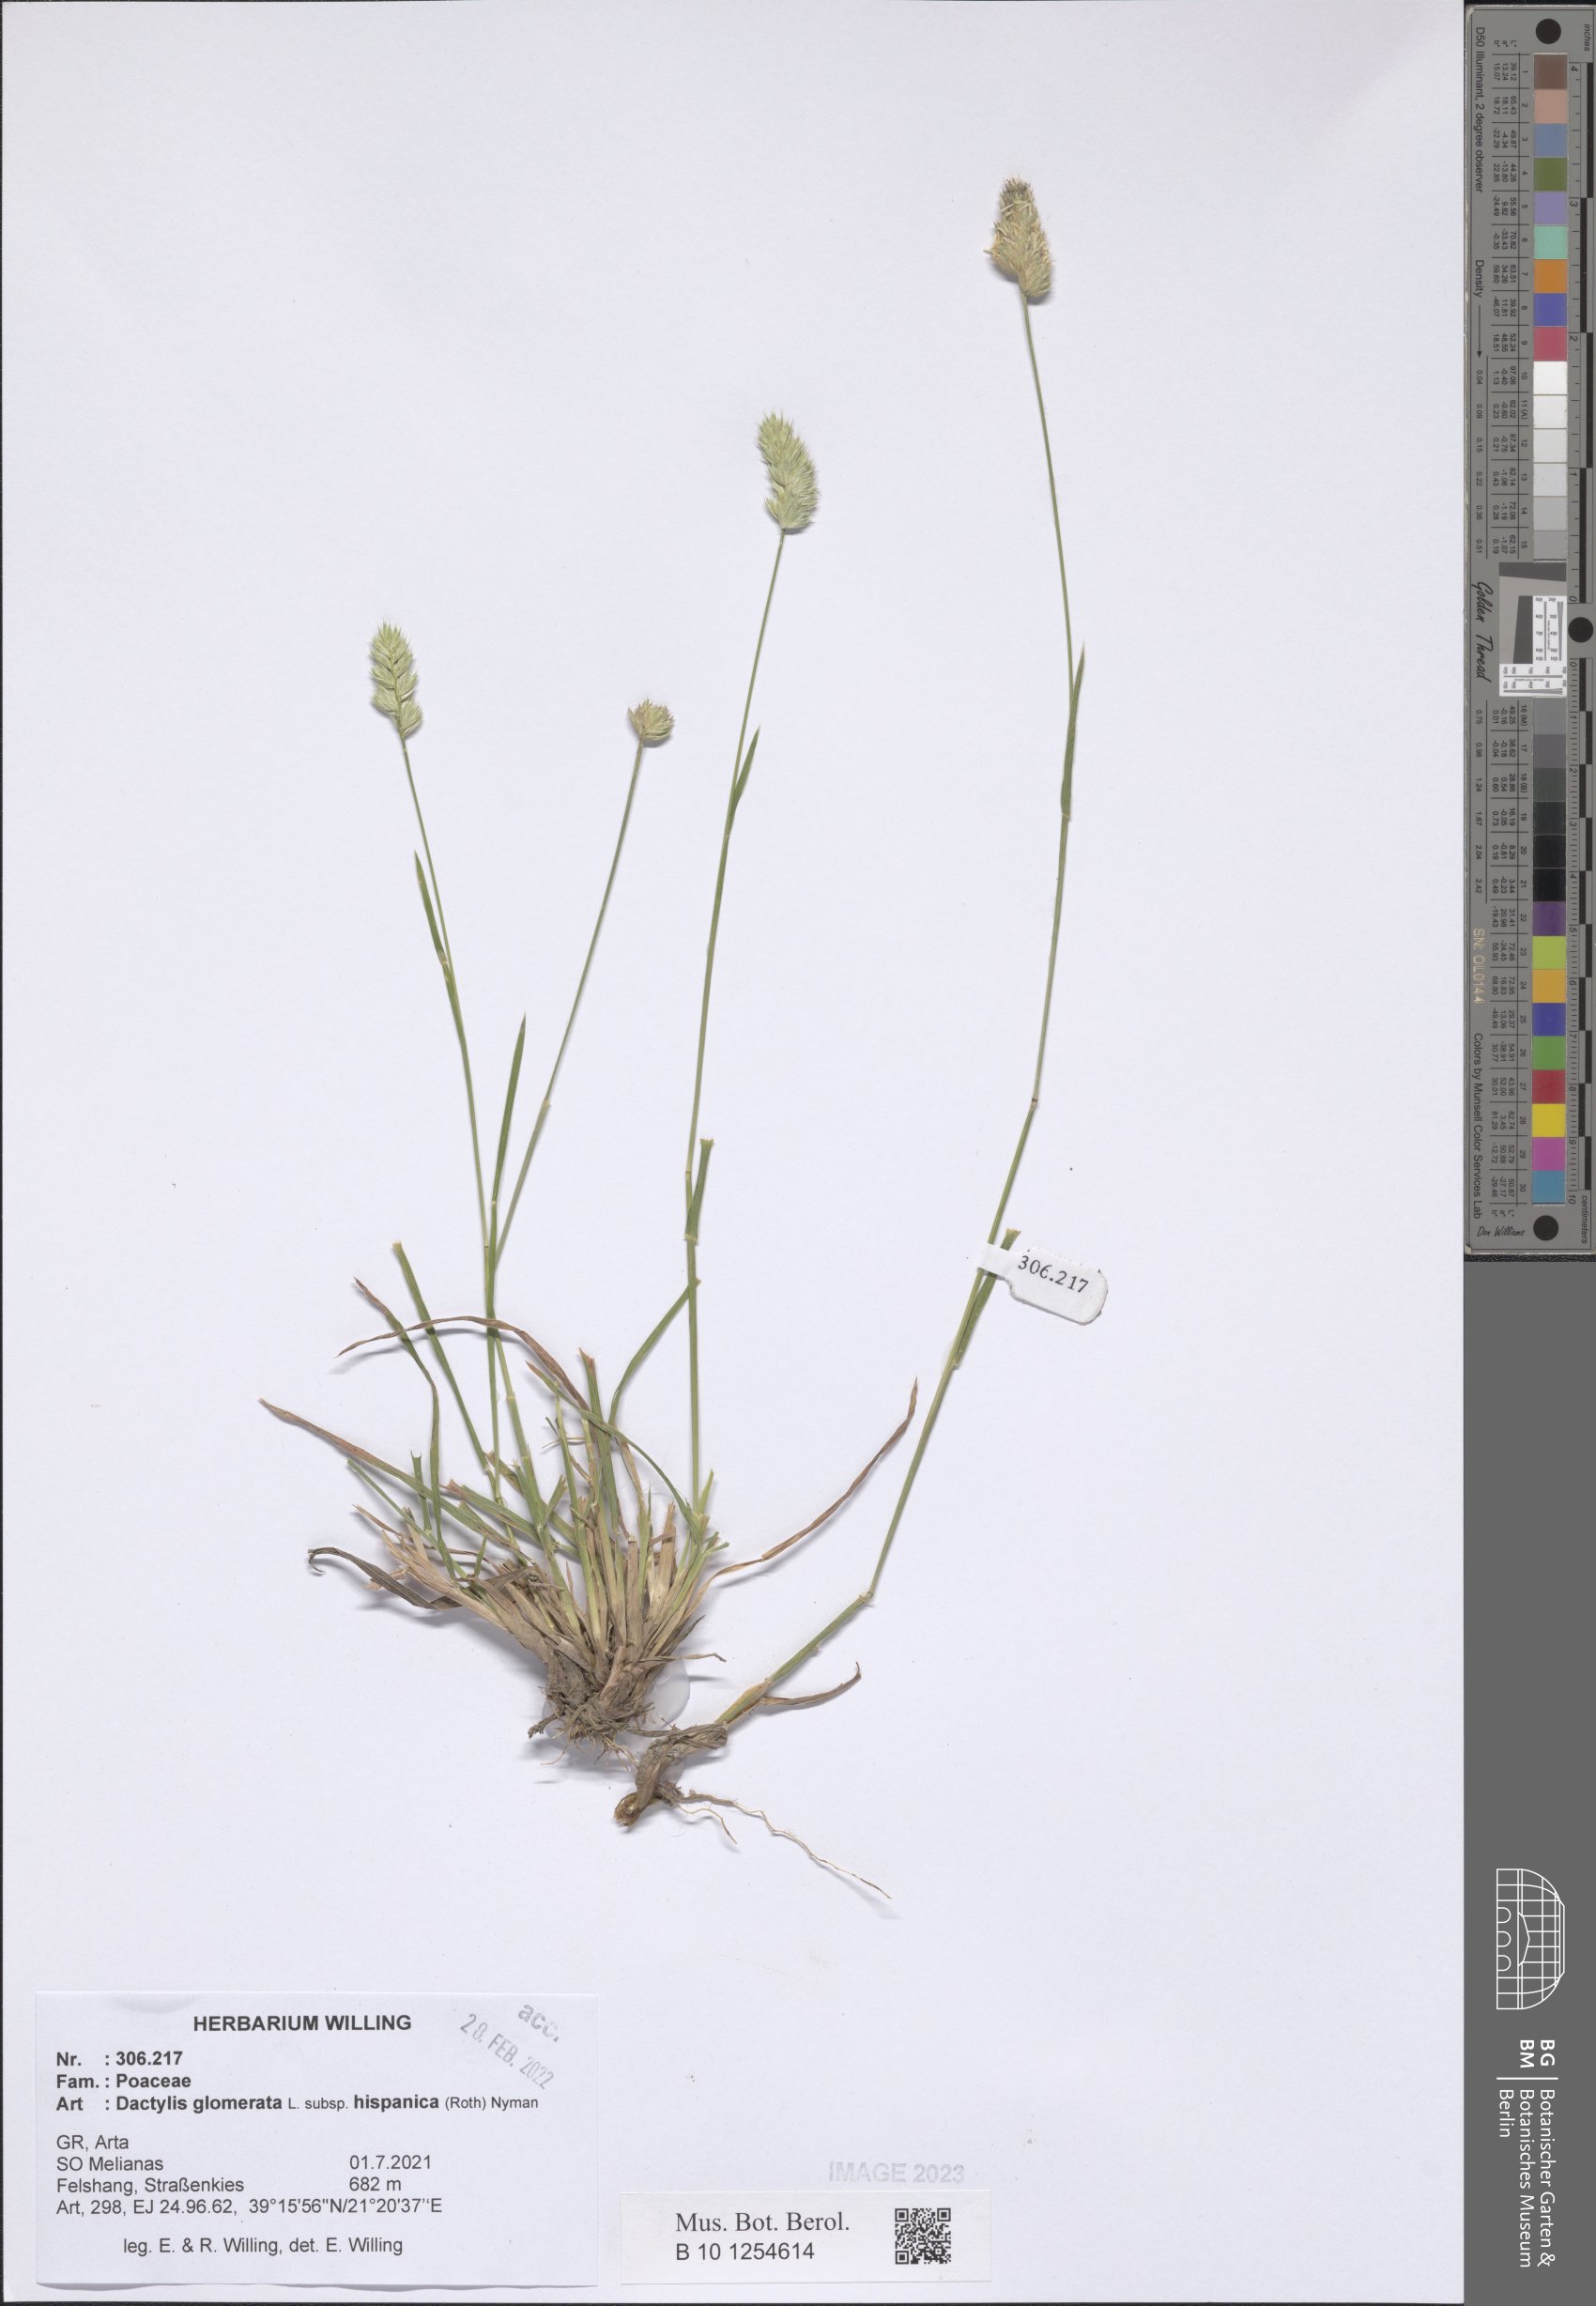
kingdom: Plantae
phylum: Tracheophyta
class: Liliopsida
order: Poales
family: Poaceae
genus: Dactylis
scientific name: Dactylis glomerata
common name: Orchardgrass
